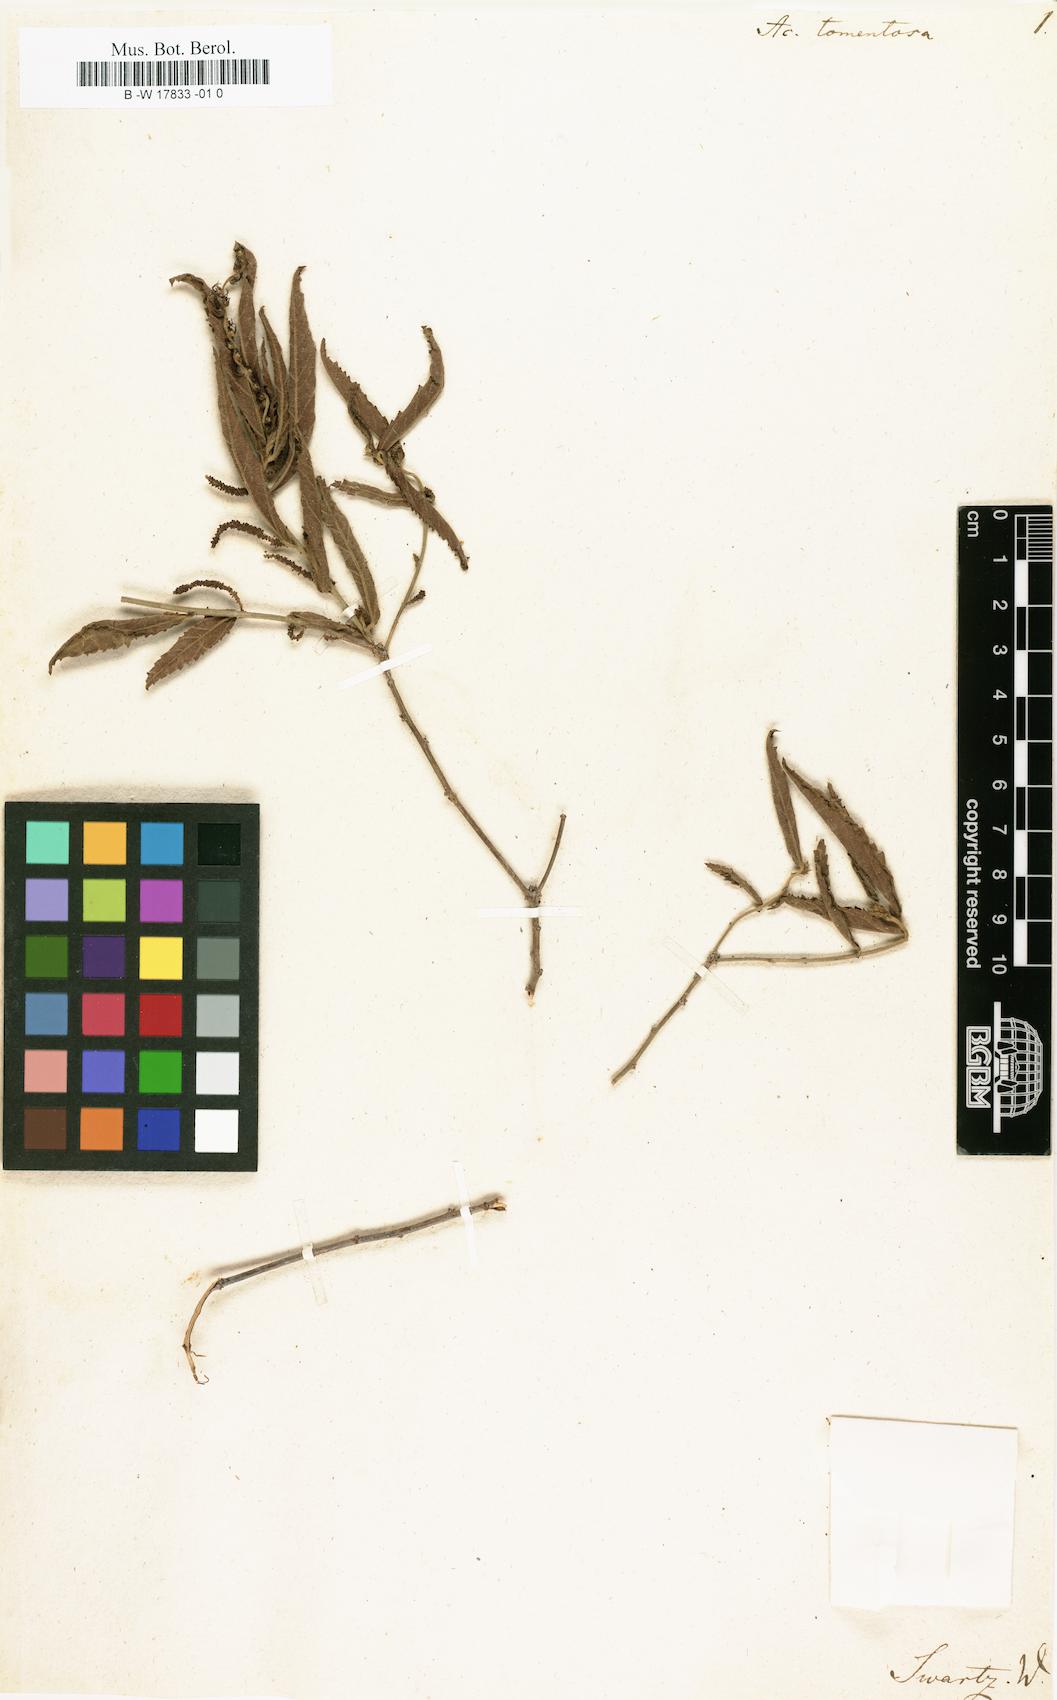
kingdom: Plantae
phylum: Tracheophyta
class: Magnoliopsida
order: Malpighiales
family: Euphorbiaceae
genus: Acalypha
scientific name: Acalypha tomentosa
